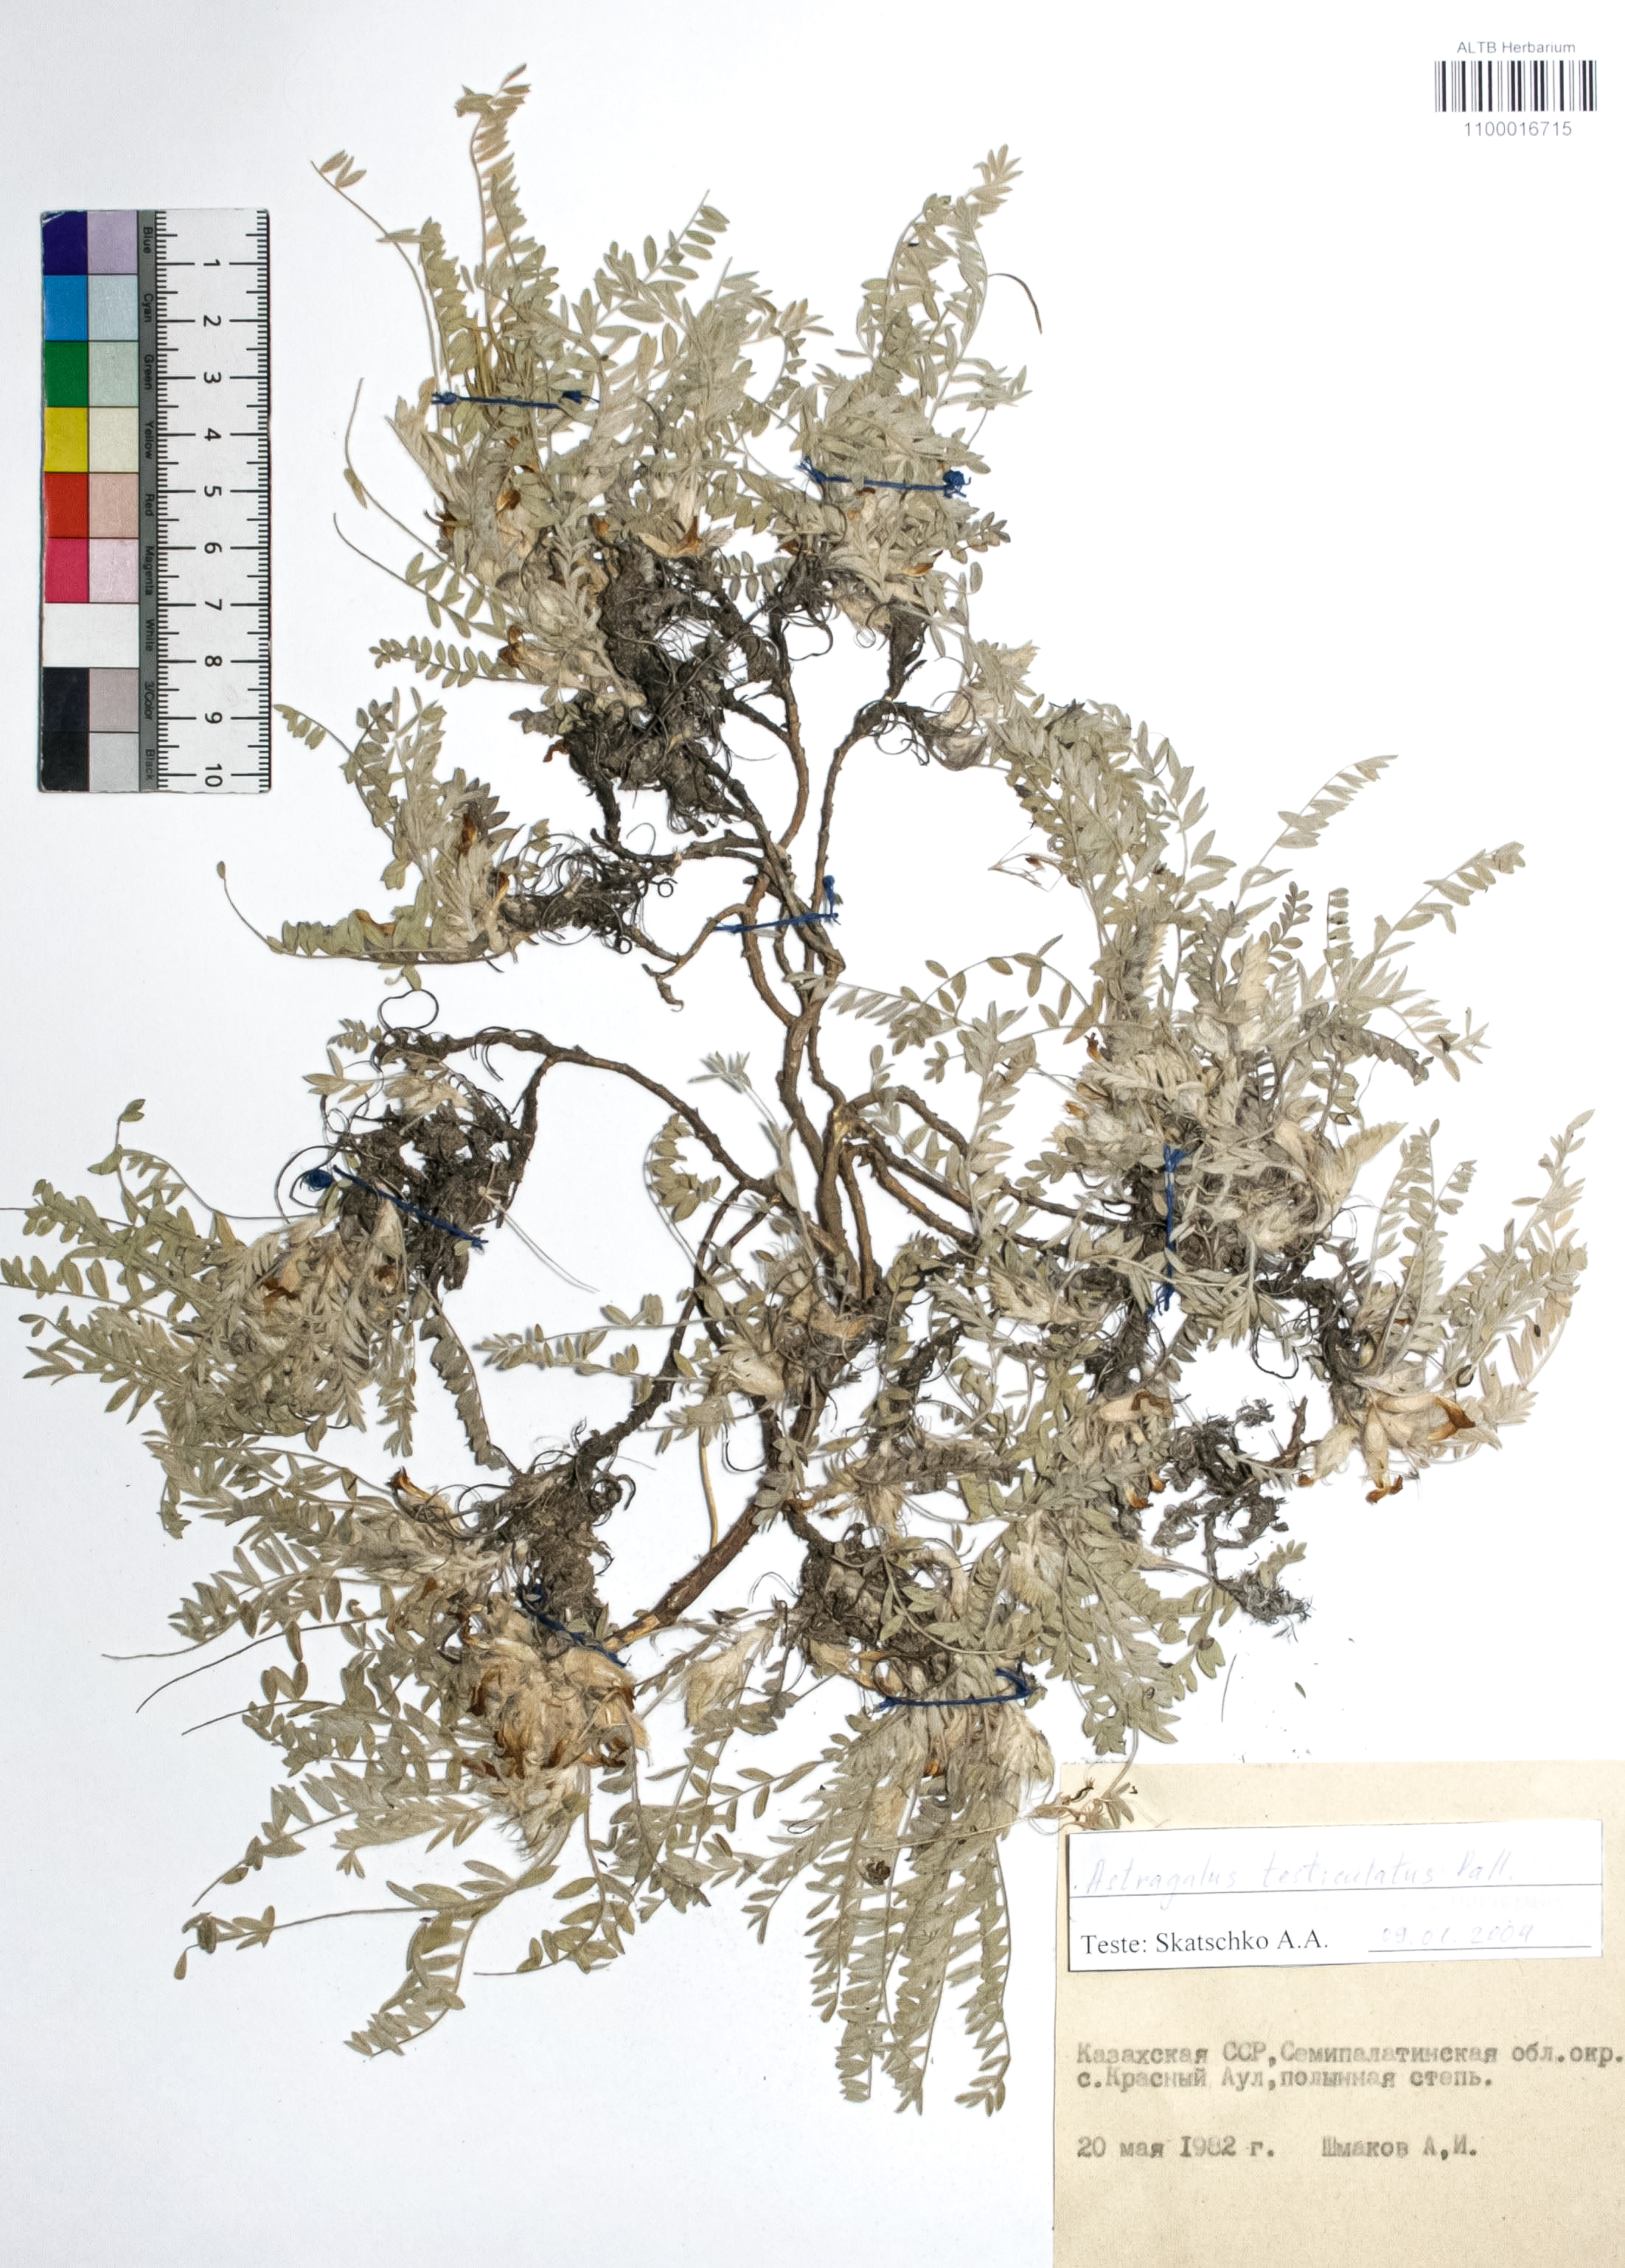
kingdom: Plantae
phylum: Tracheophyta
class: Magnoliopsida
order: Fabales
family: Fabaceae
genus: Astragalus
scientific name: Astragalus testiculatus
